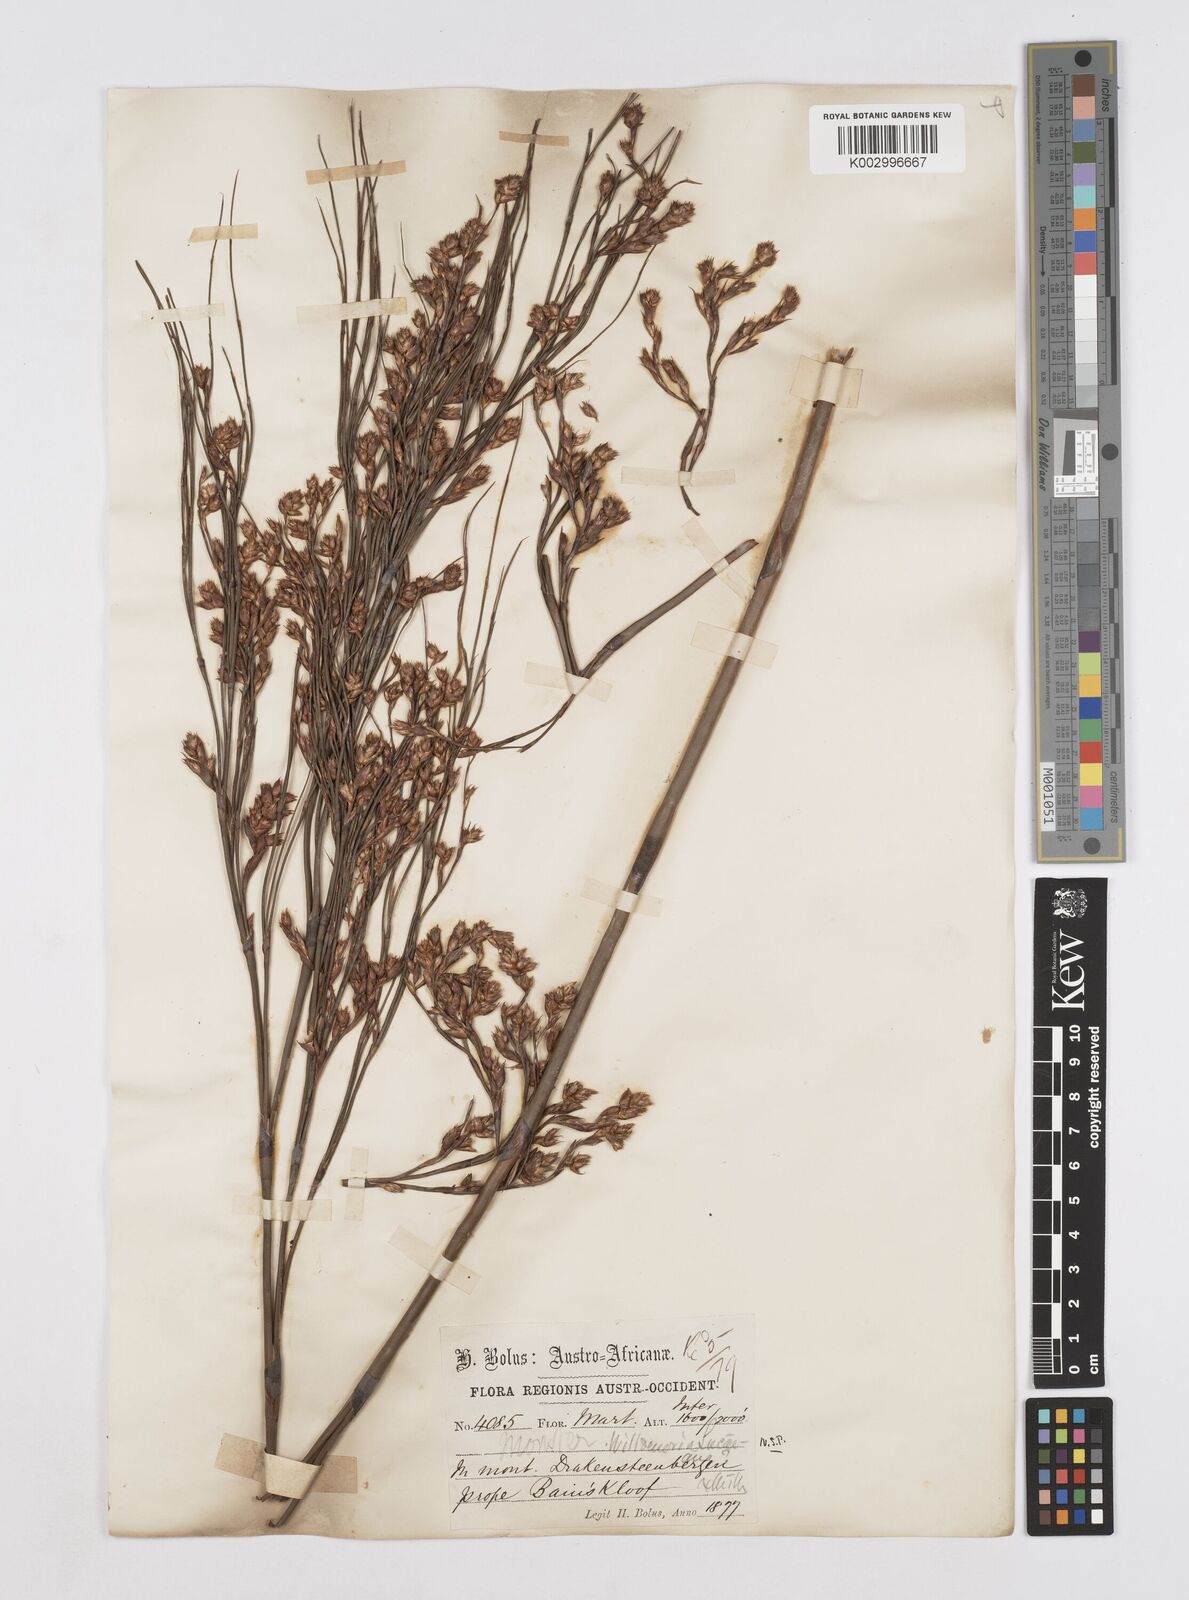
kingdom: Plantae
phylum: Tracheophyta
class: Liliopsida
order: Poales
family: Restionaceae
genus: Willdenowia
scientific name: Willdenowia glomerata
